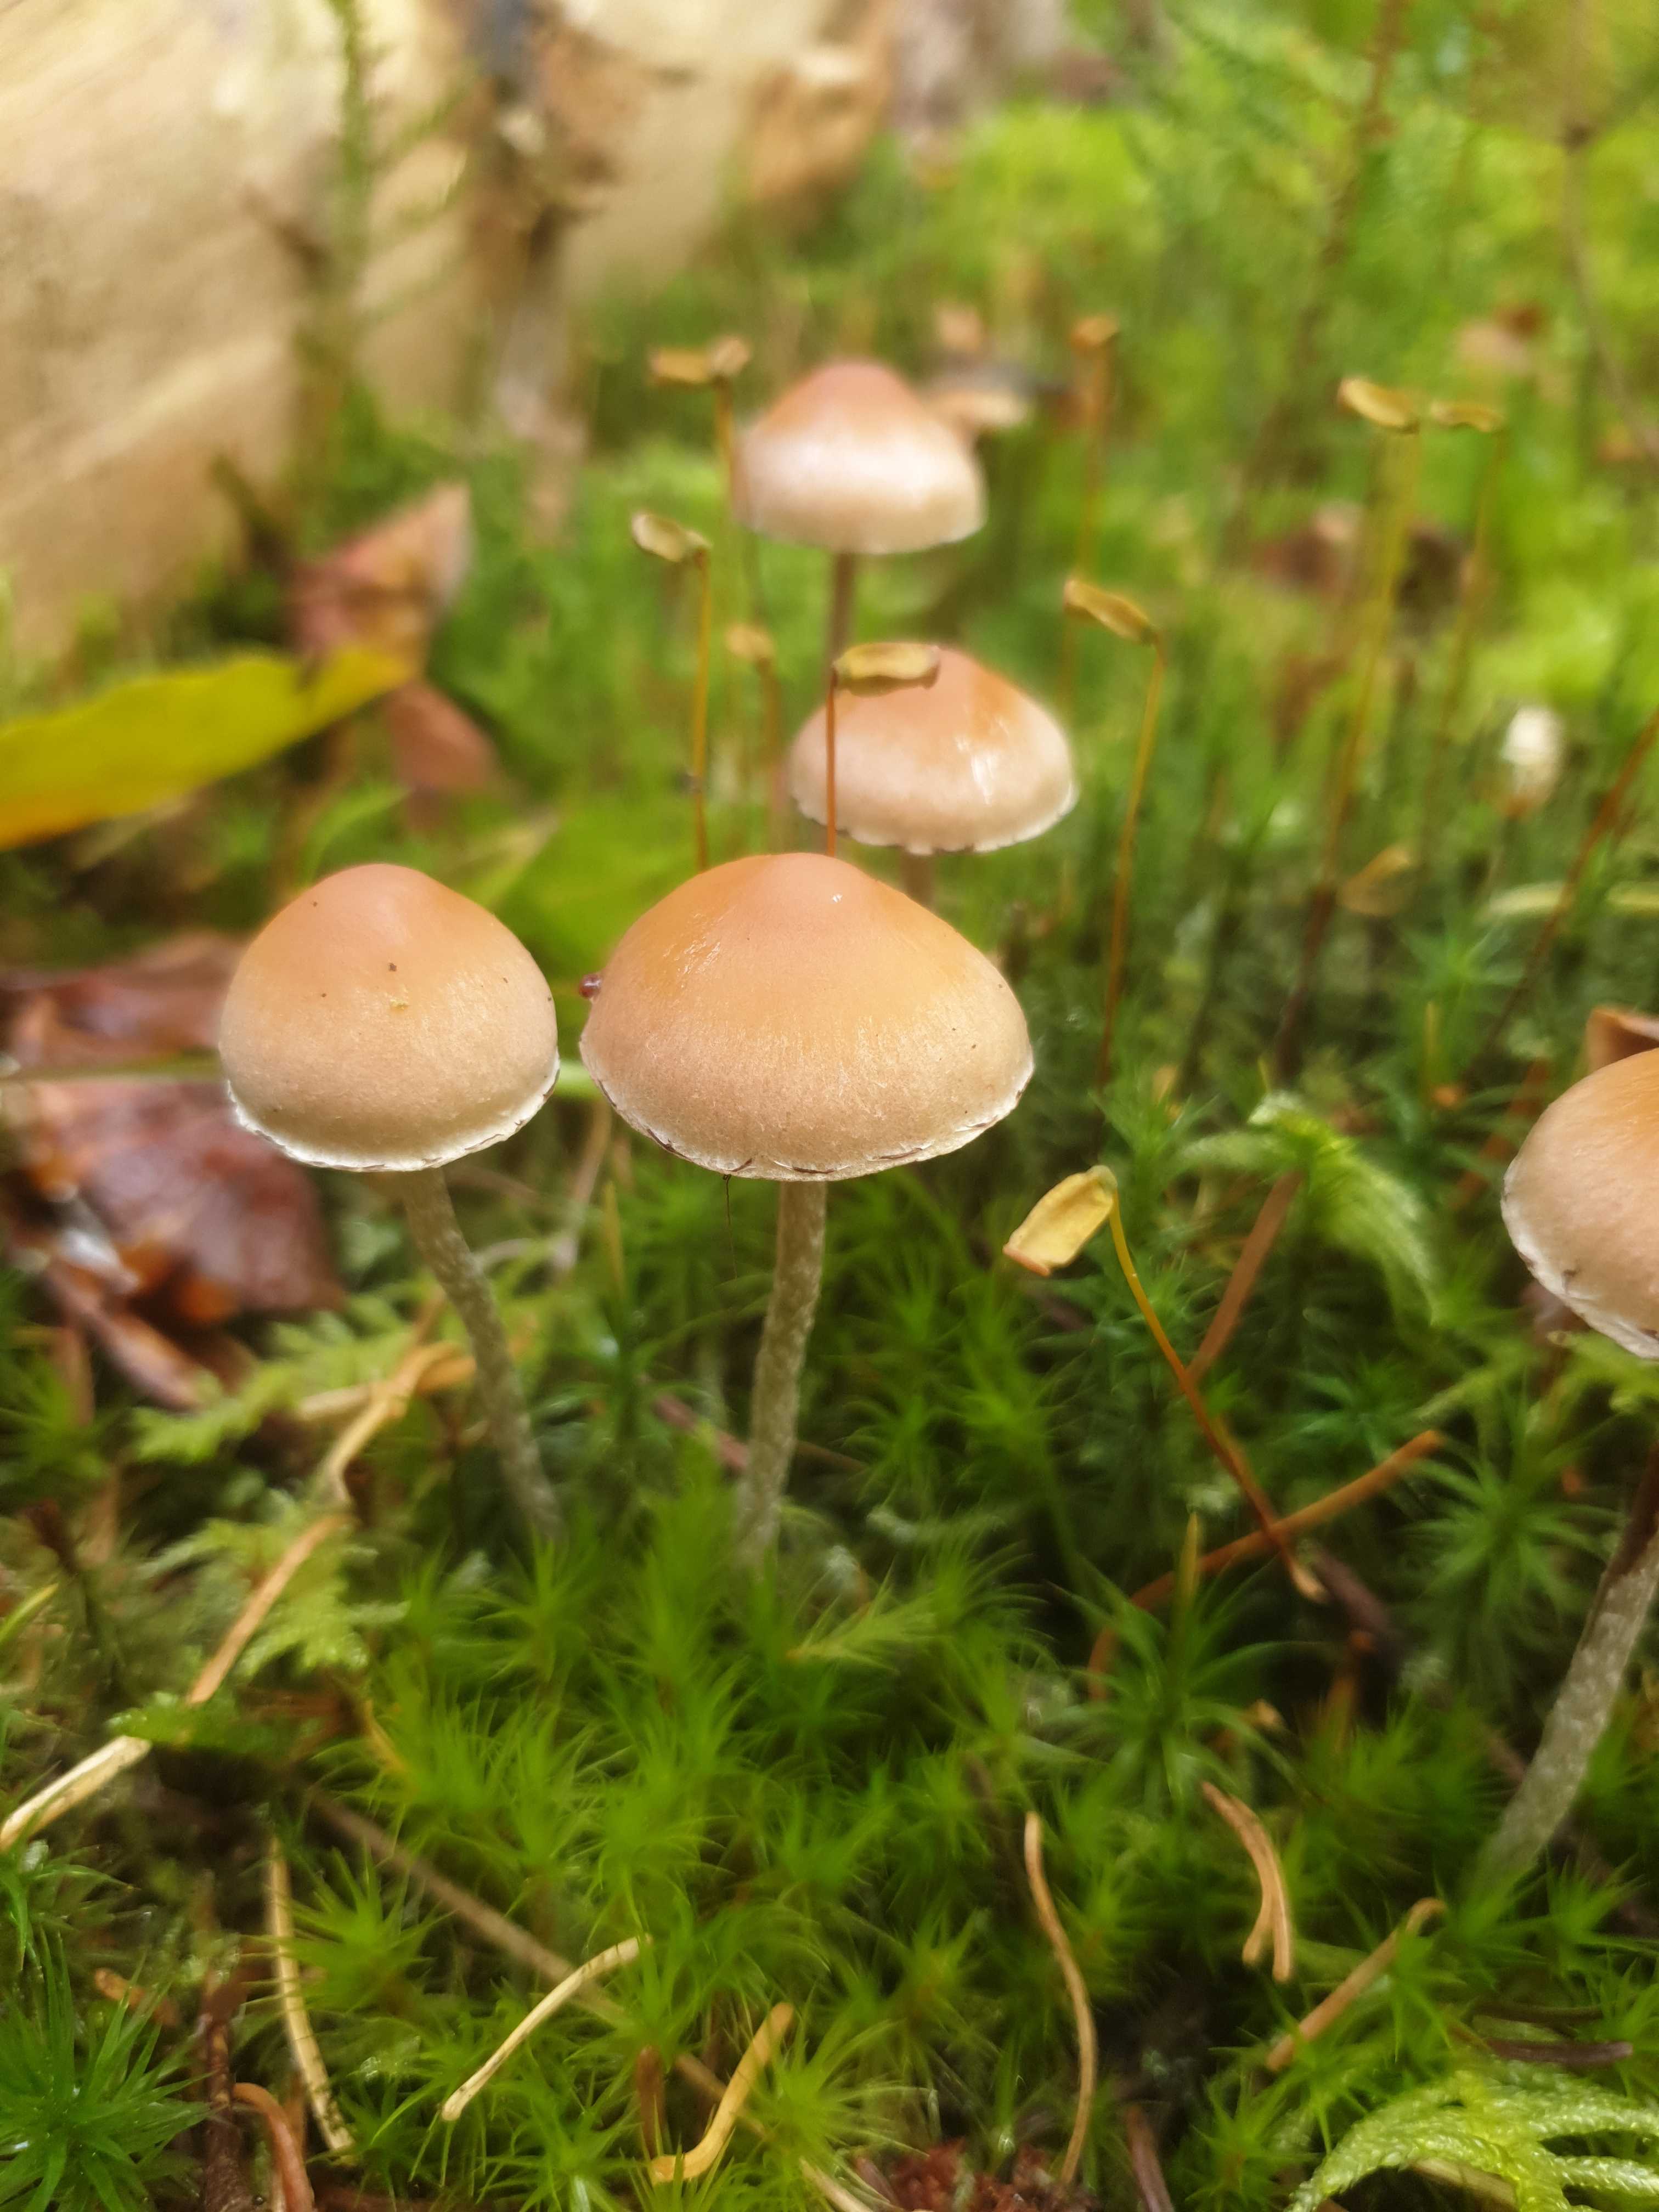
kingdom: Fungi
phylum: Basidiomycota
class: Agaricomycetes
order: Agaricales
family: Strophariaceae
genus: Hypholoma
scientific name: Hypholoma marginatum
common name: enlig svovlhat
